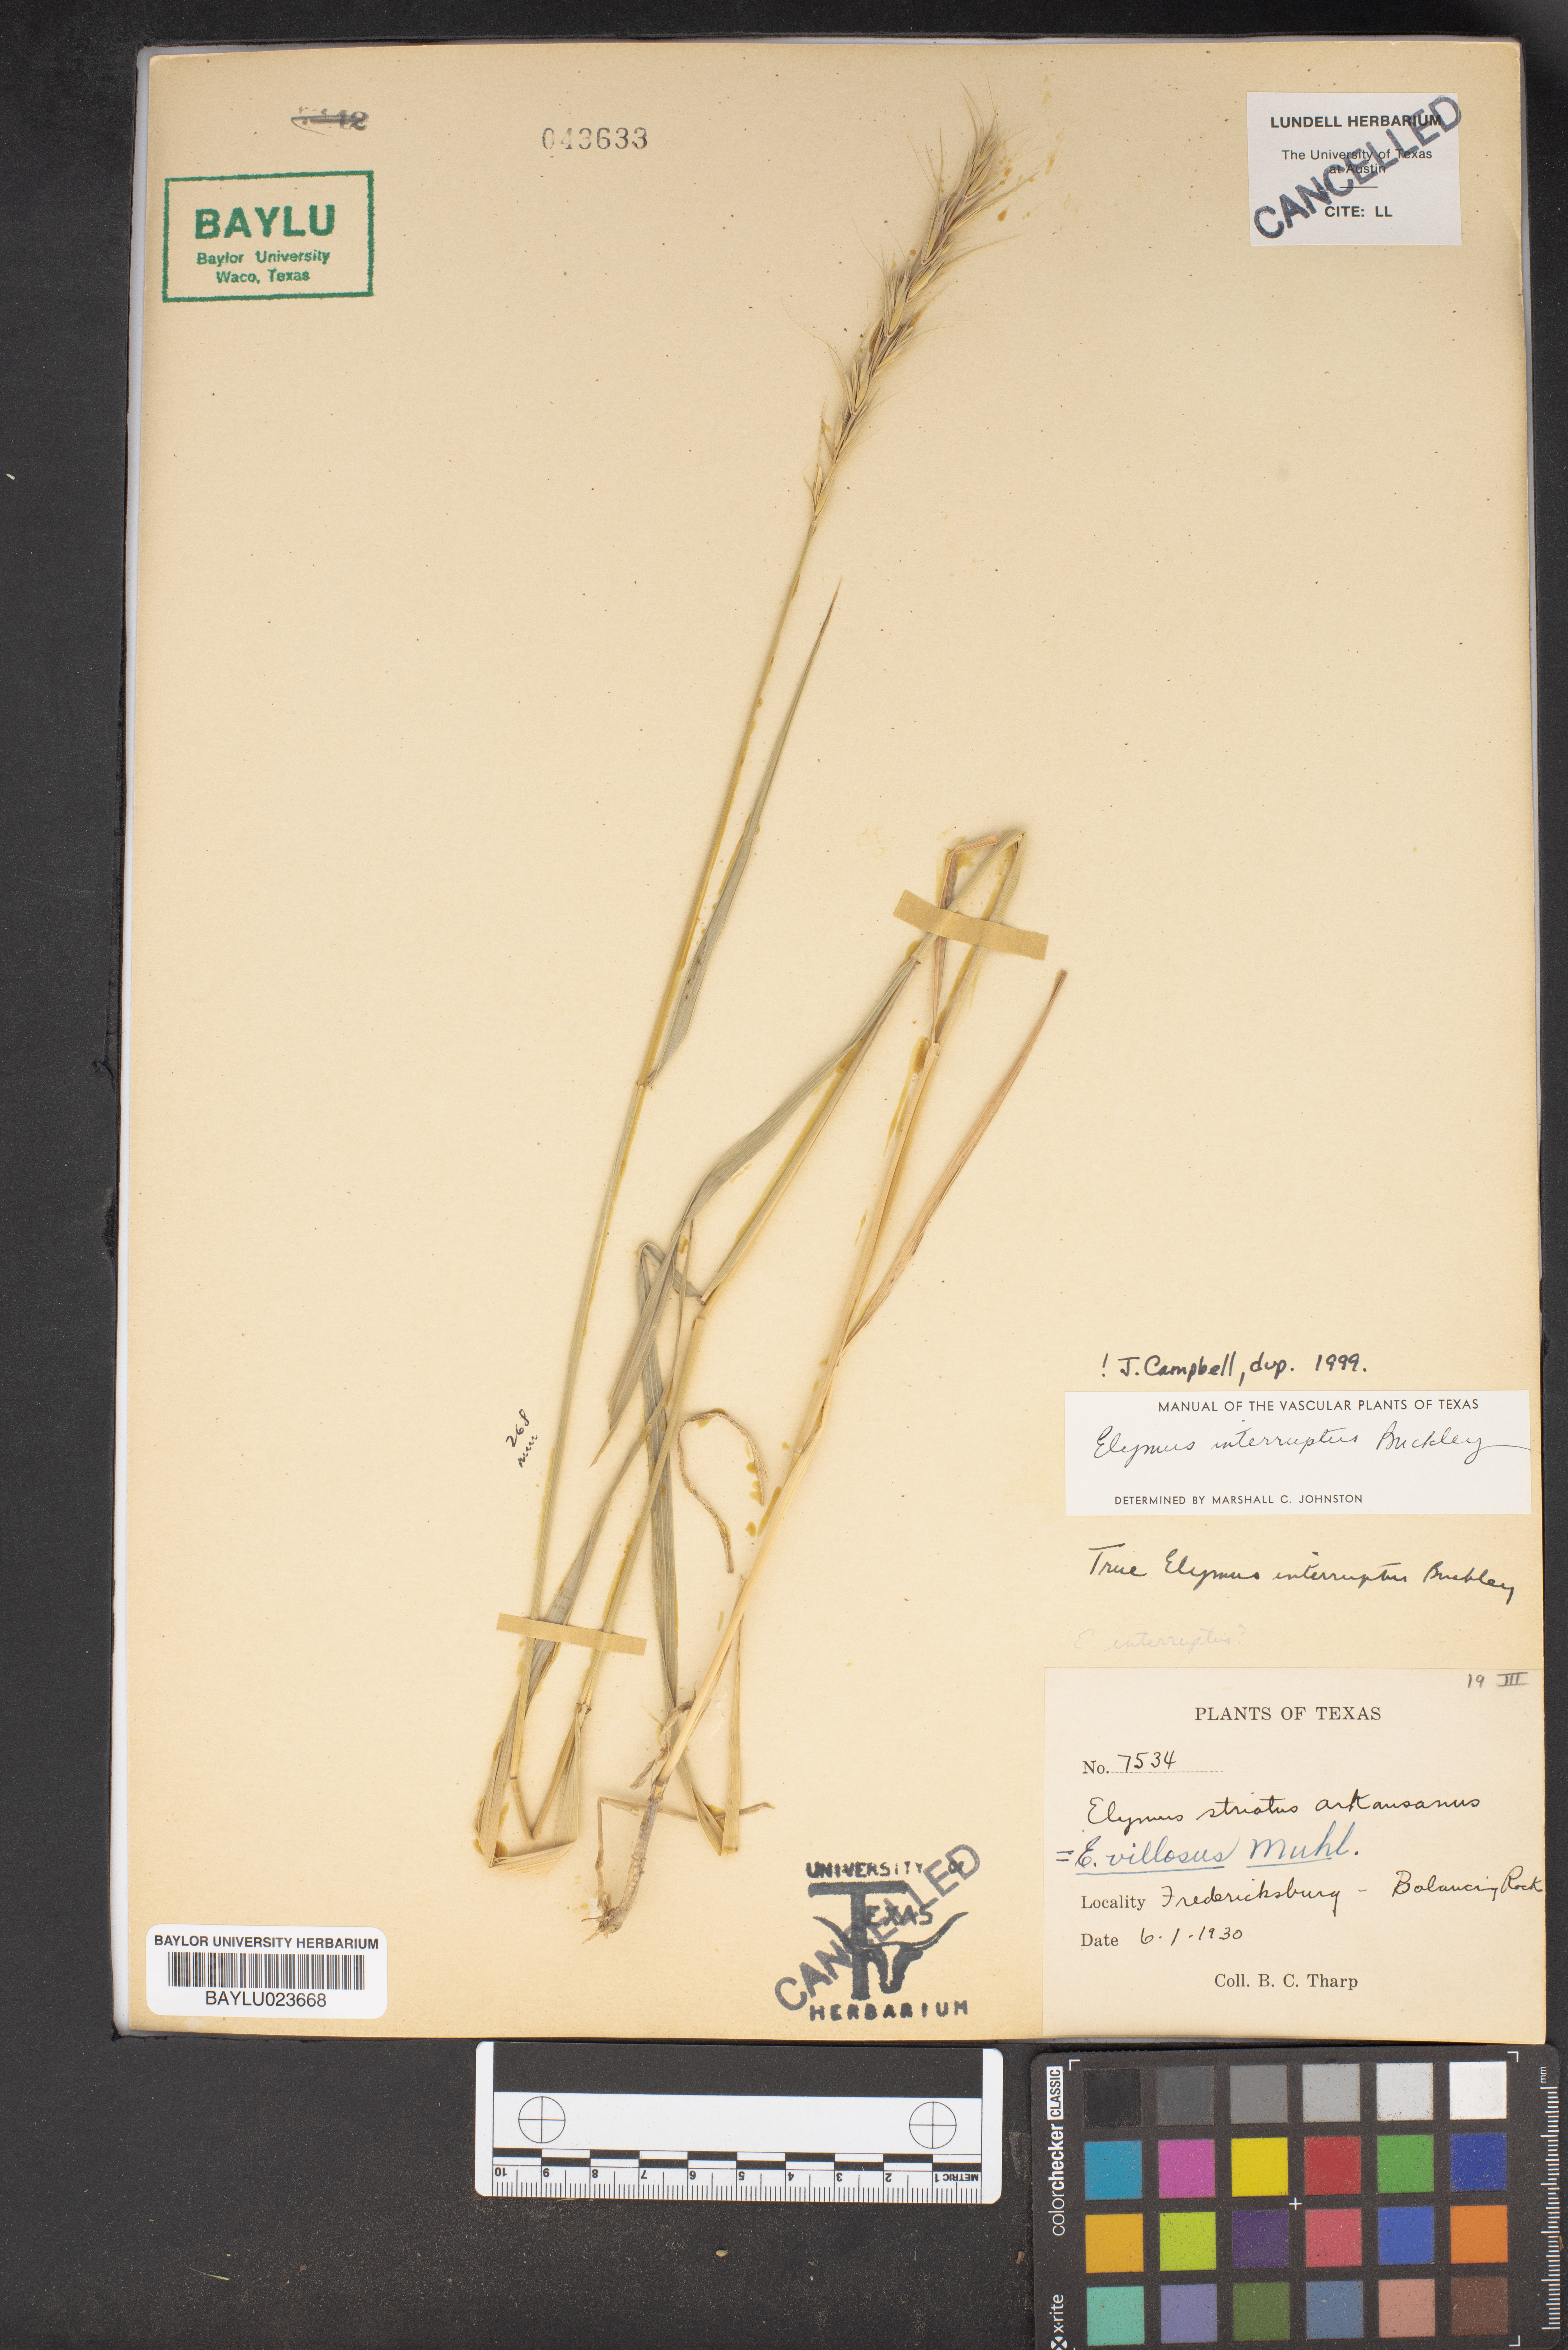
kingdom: Plantae
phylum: Tracheophyta
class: Liliopsida
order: Poales
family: Poaceae
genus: Elymus
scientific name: Elymus villosus
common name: Downy wild rye
